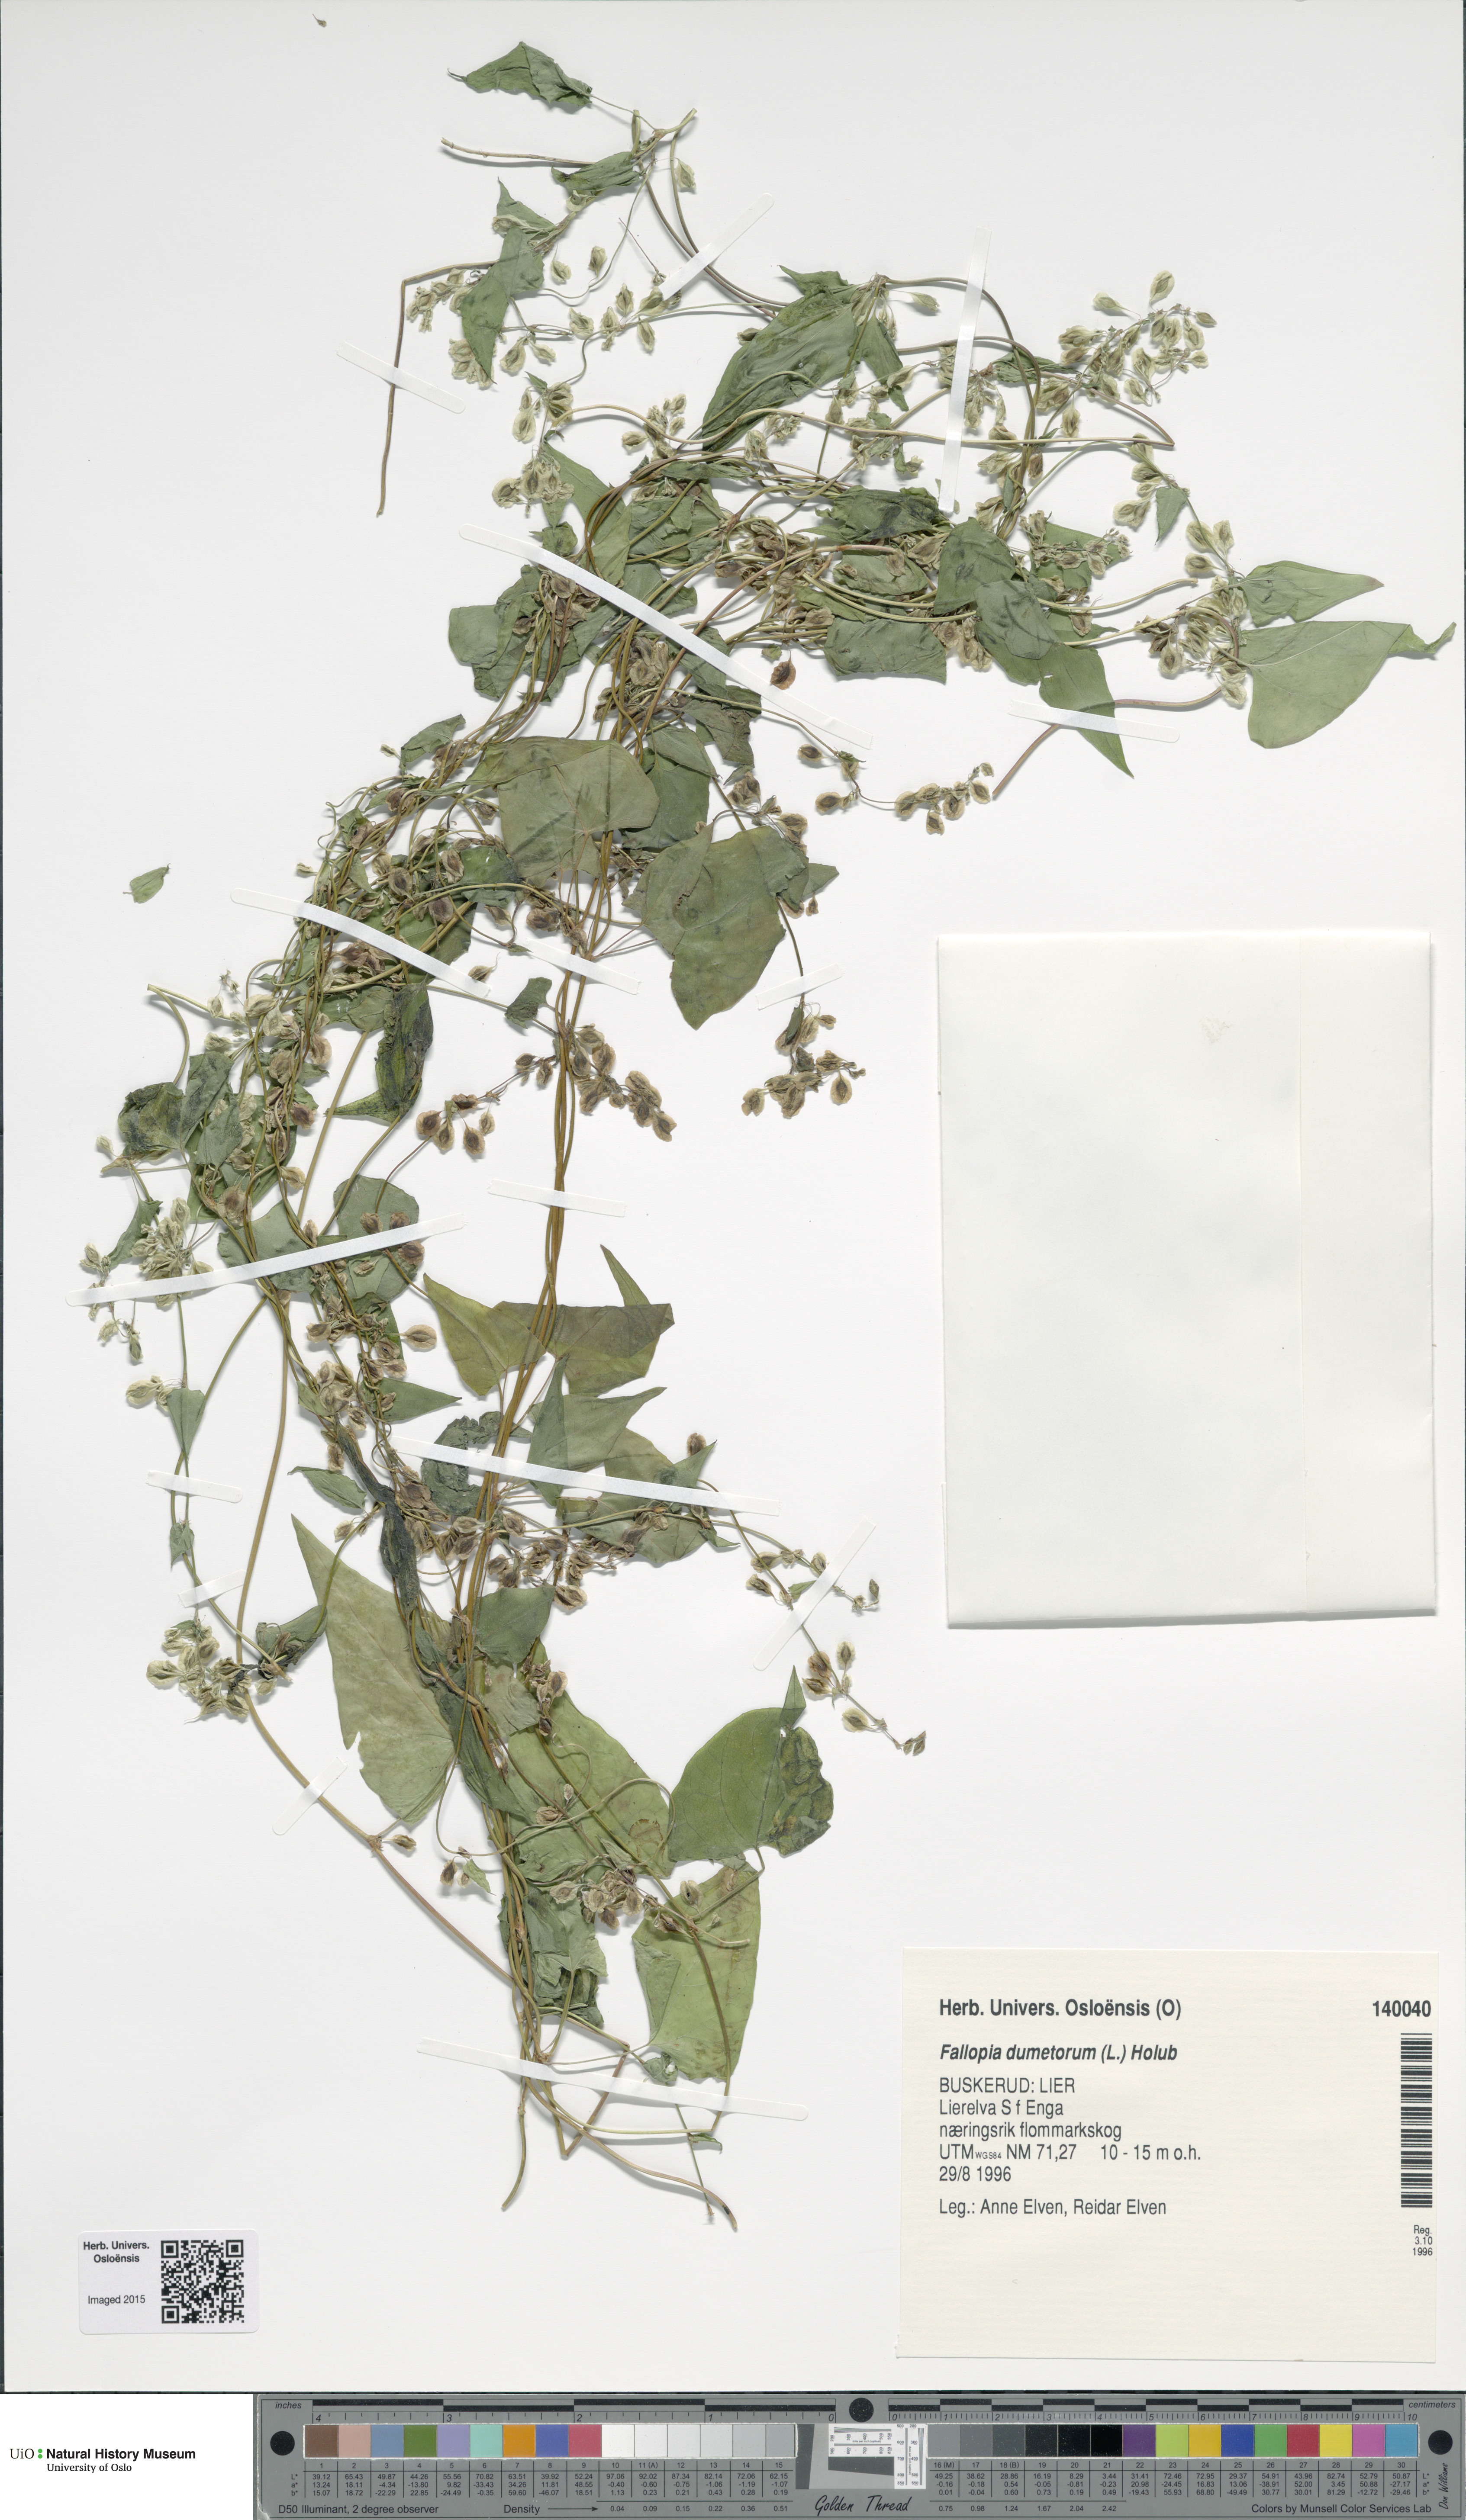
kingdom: Plantae
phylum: Tracheophyta
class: Magnoliopsida
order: Caryophyllales
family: Polygonaceae
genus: Fallopia
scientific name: Fallopia dumetorum
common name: Copse-bindweed
